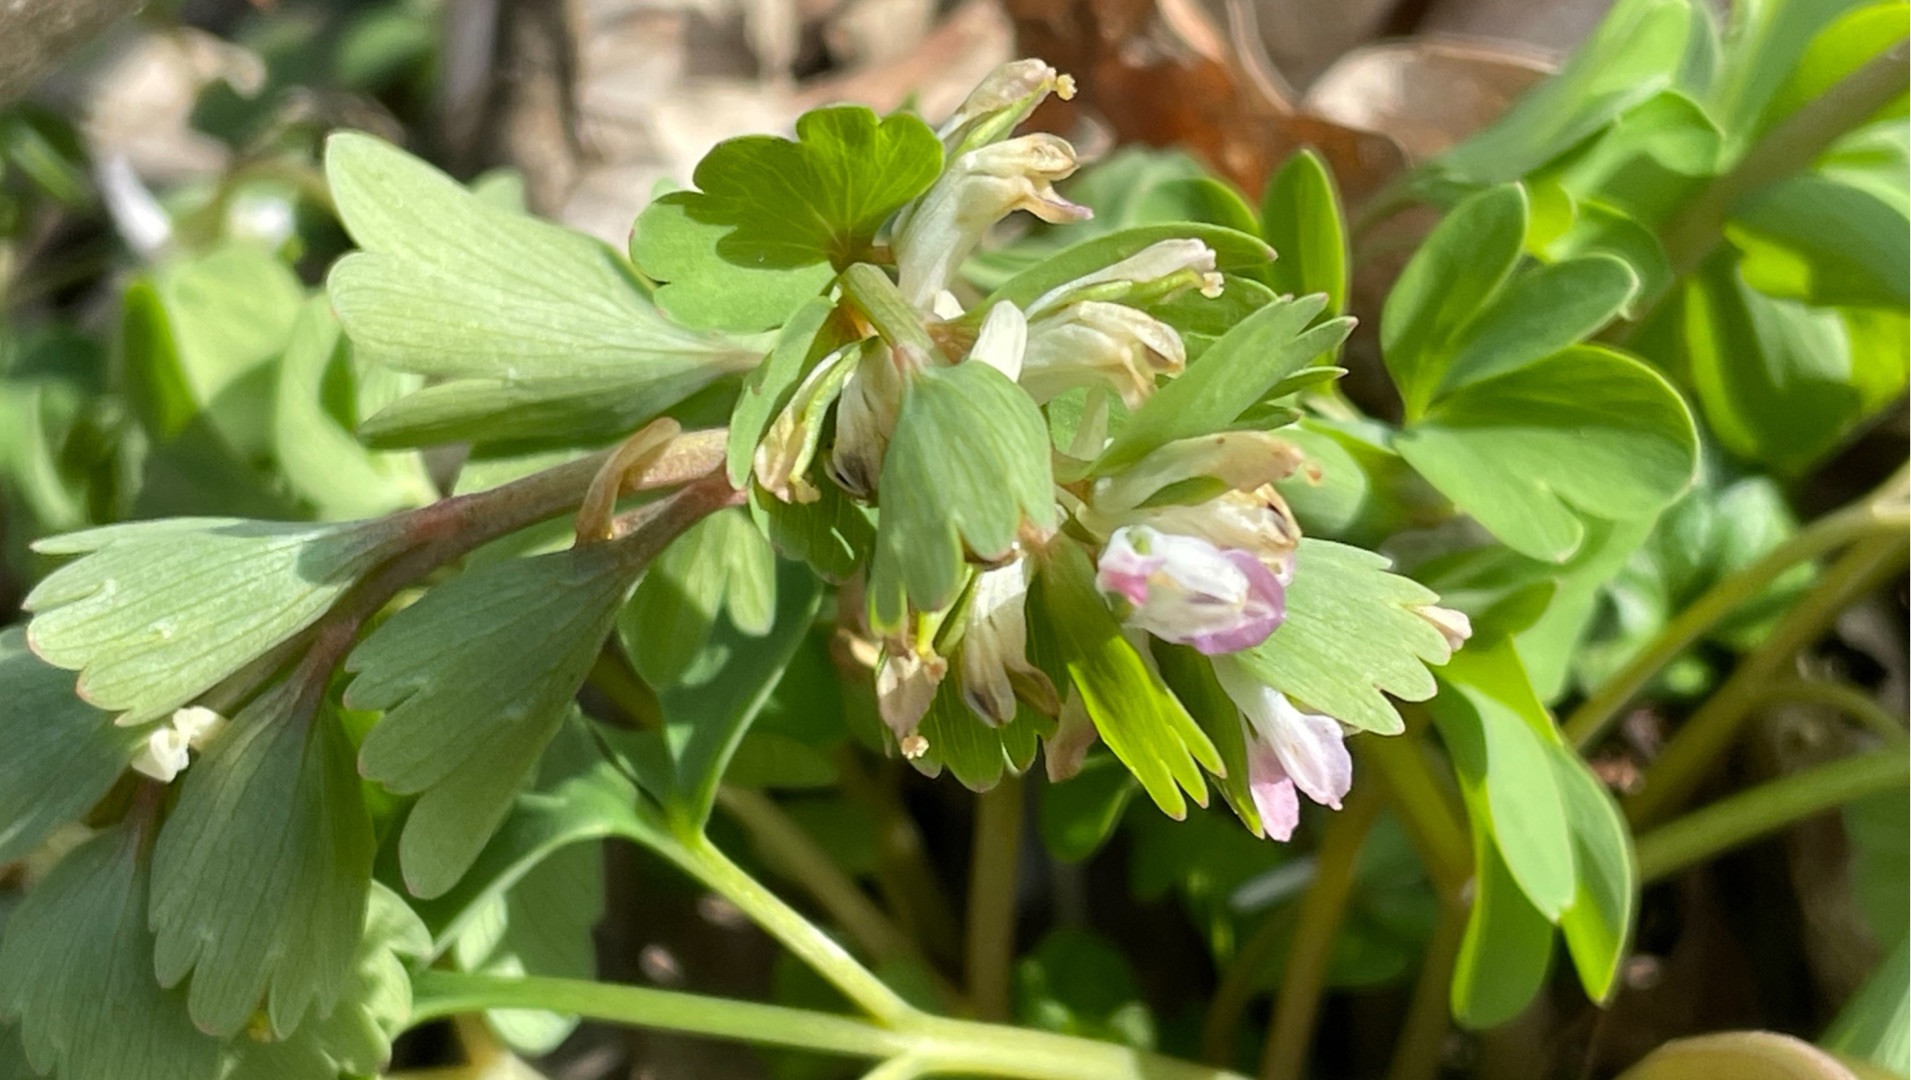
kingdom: Plantae
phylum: Tracheophyta
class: Magnoliopsida
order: Ranunculales
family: Papaveraceae
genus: Corydalis
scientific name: Corydalis pumila
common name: Finger-lærkespore
